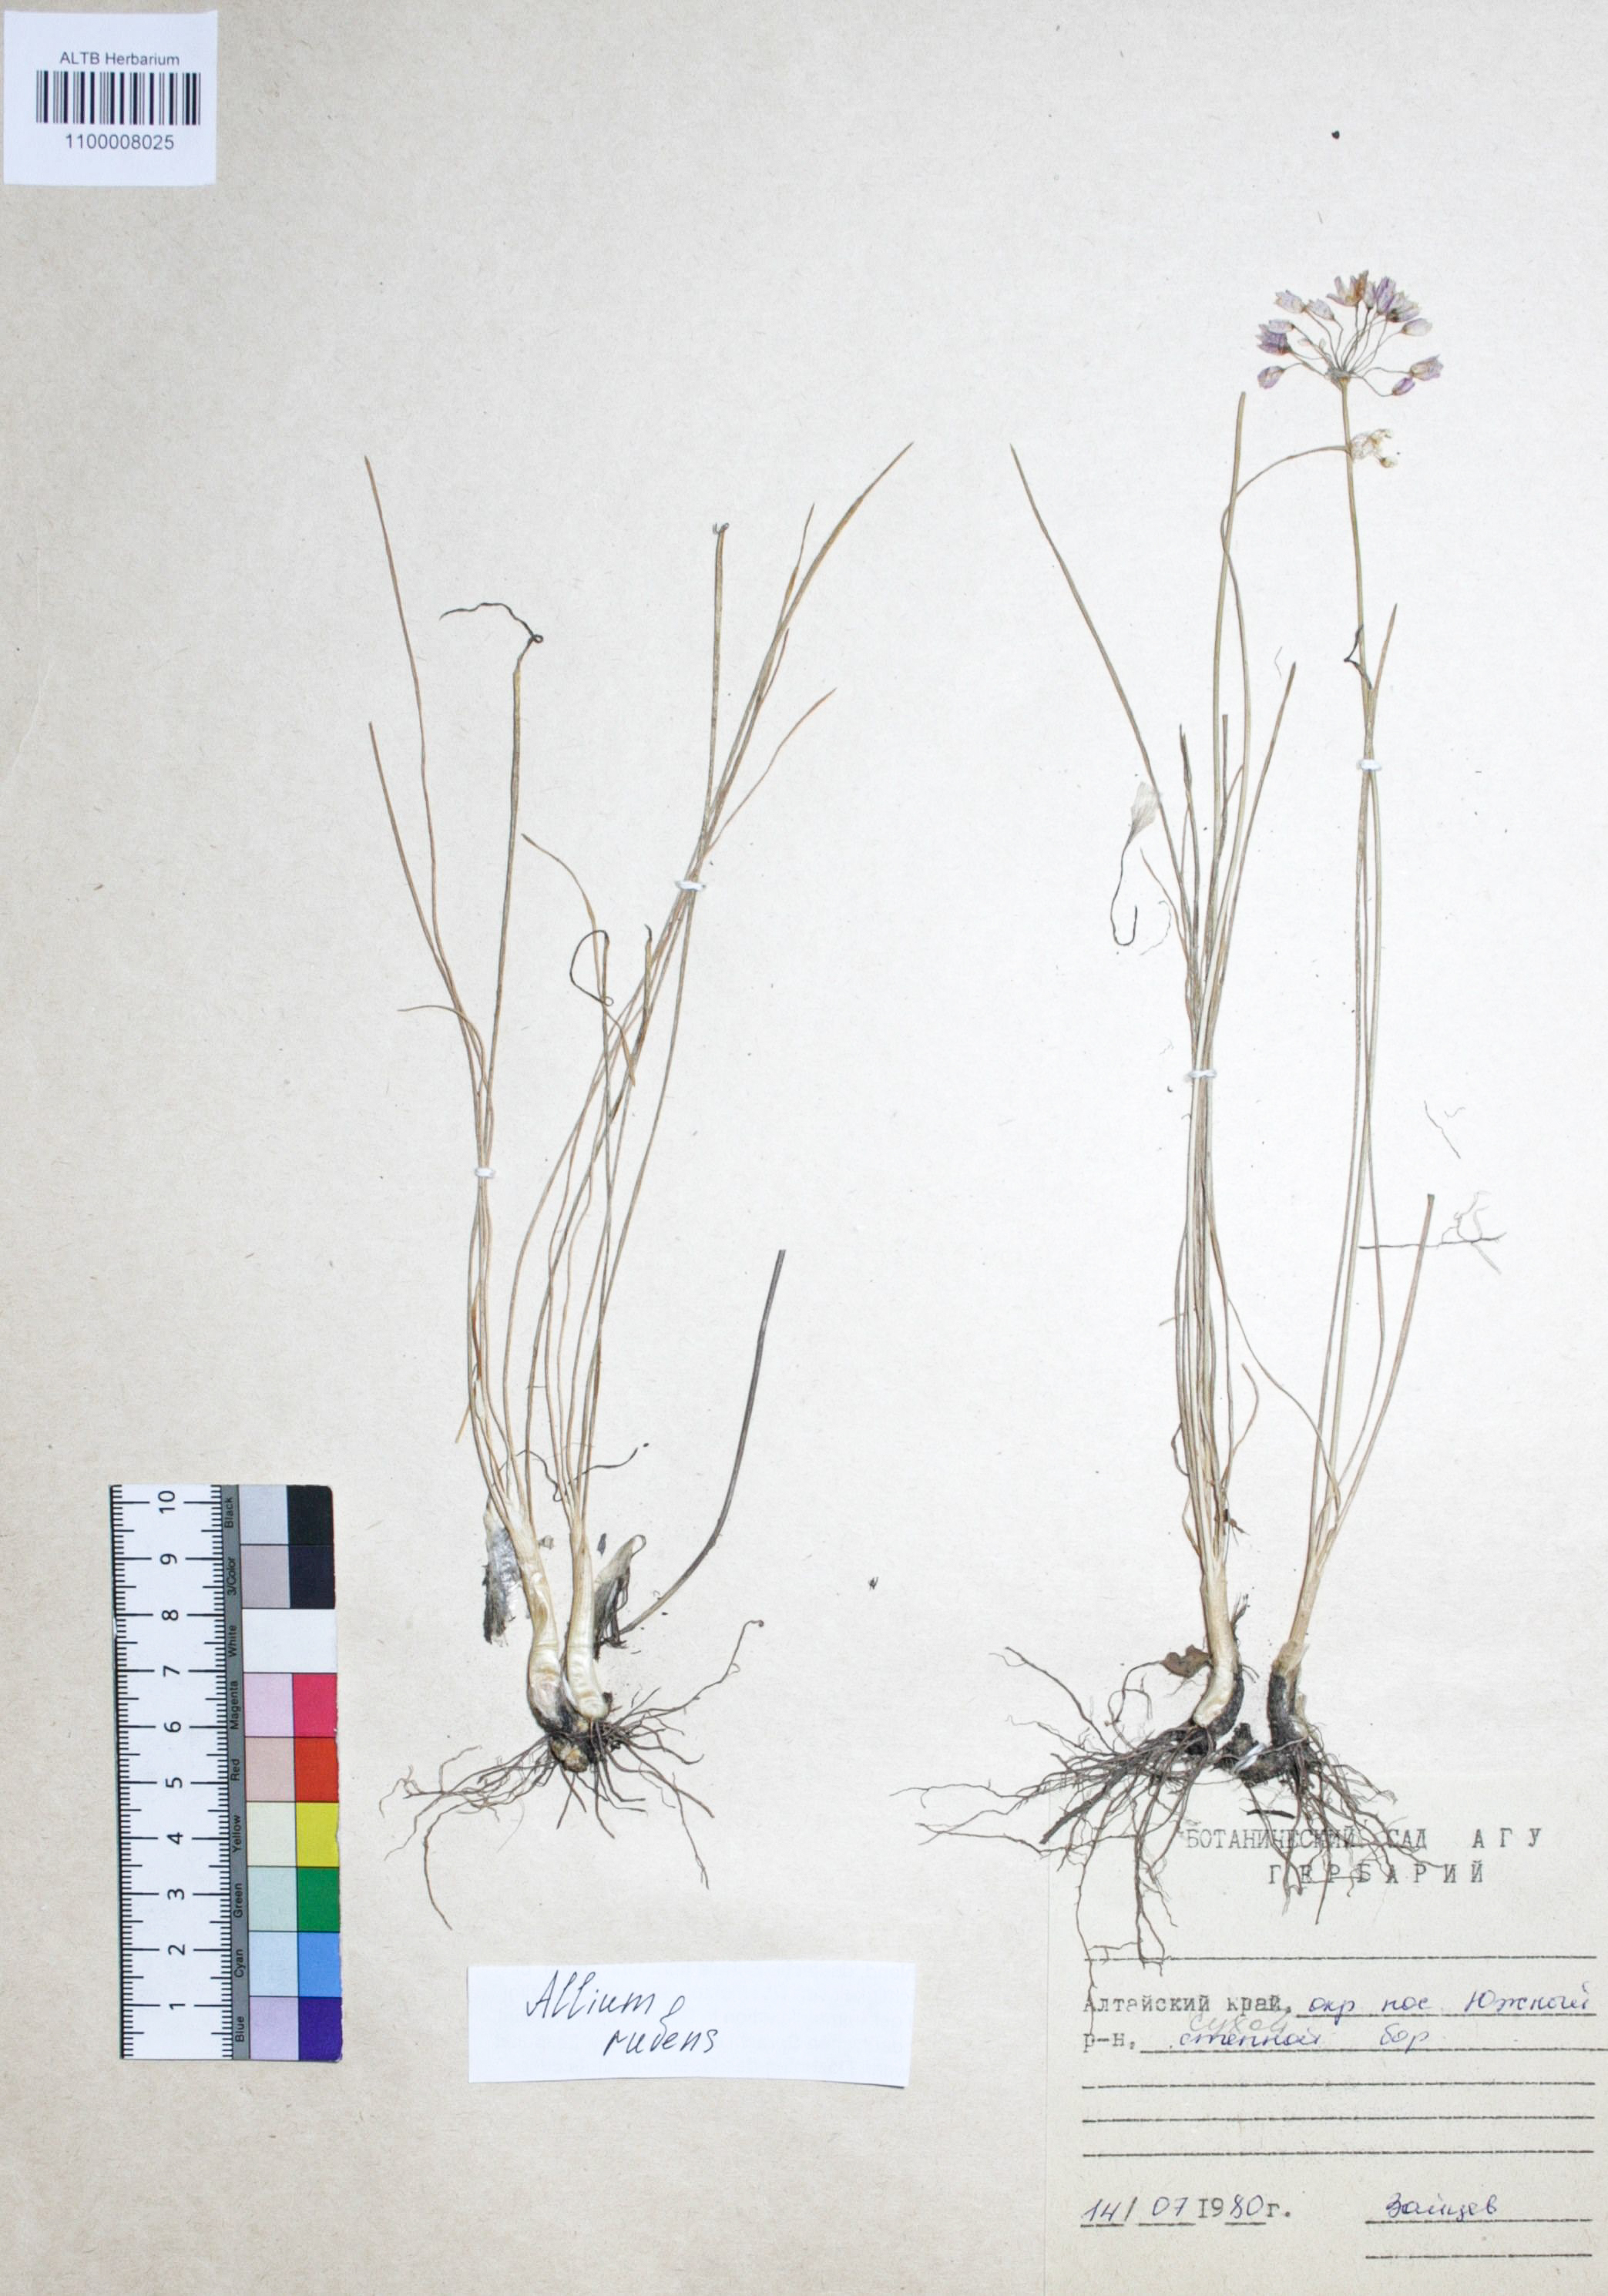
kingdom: Plantae
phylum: Tracheophyta
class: Liliopsida
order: Asparagales
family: Amaryllidaceae
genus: Allium
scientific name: Allium rubens
